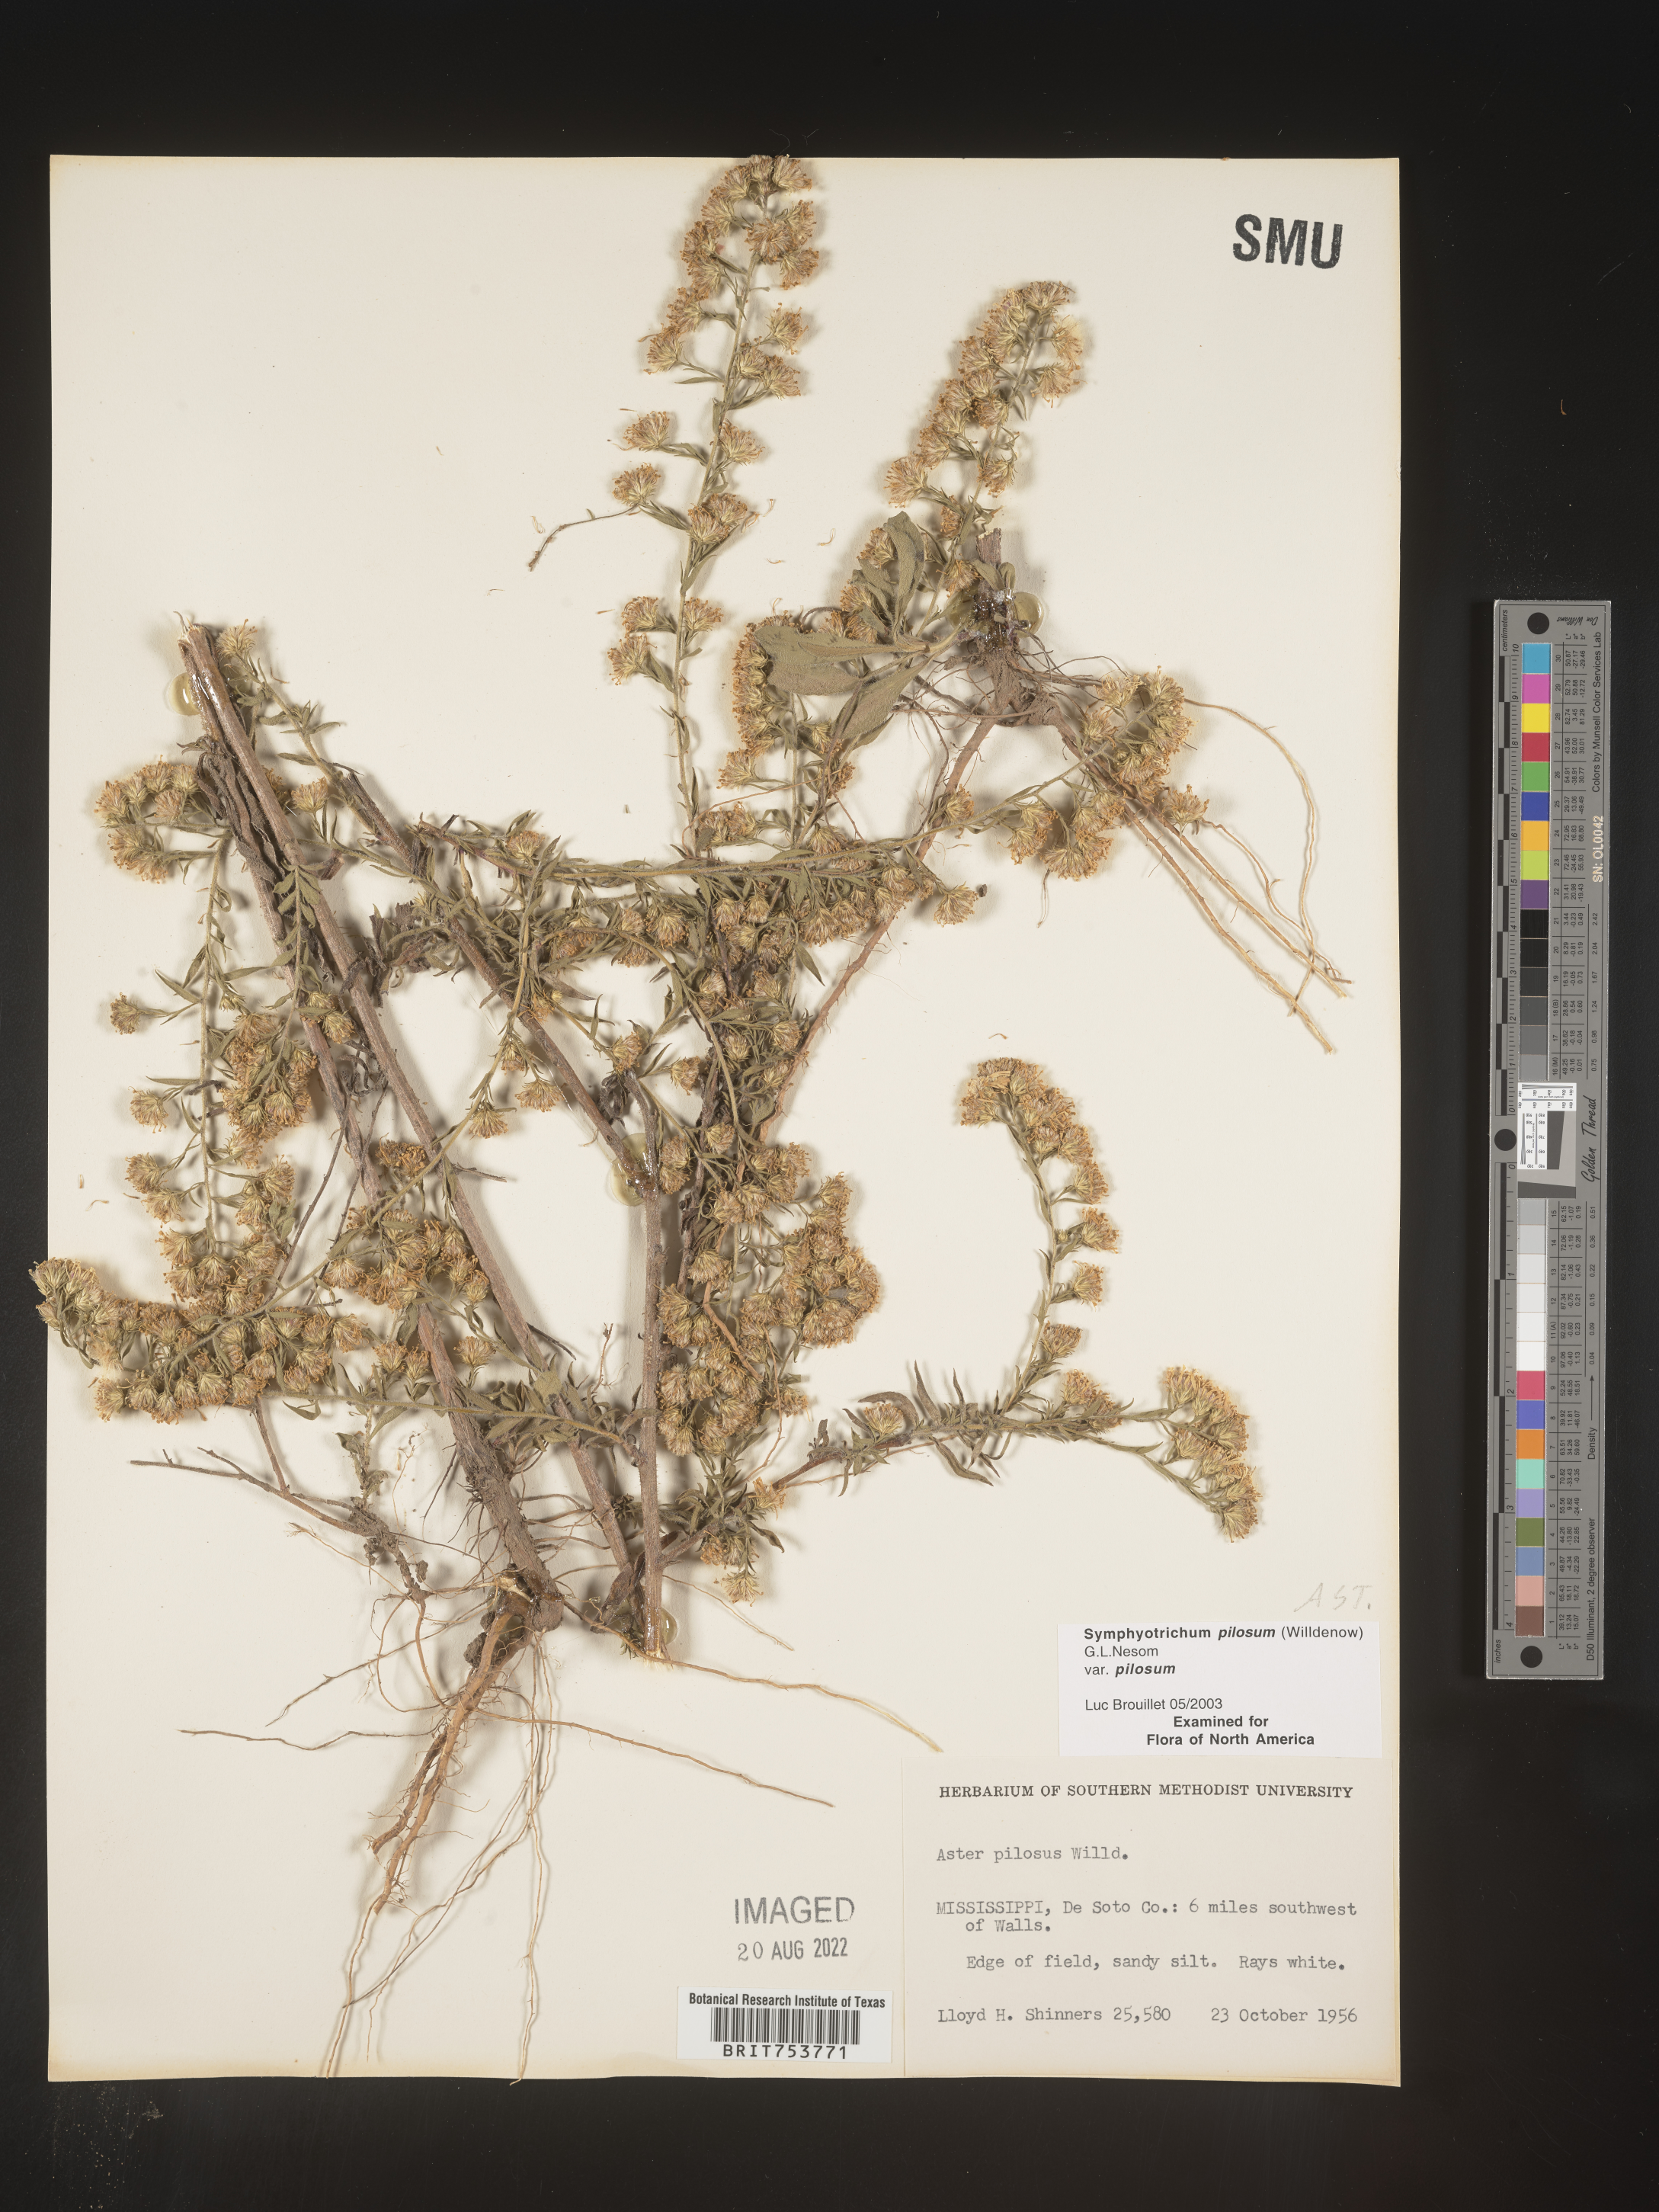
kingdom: Plantae
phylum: Tracheophyta
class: Magnoliopsida
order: Asterales
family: Asteraceae
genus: Symphyotrichum
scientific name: Symphyotrichum pilosum
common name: Awl aster
